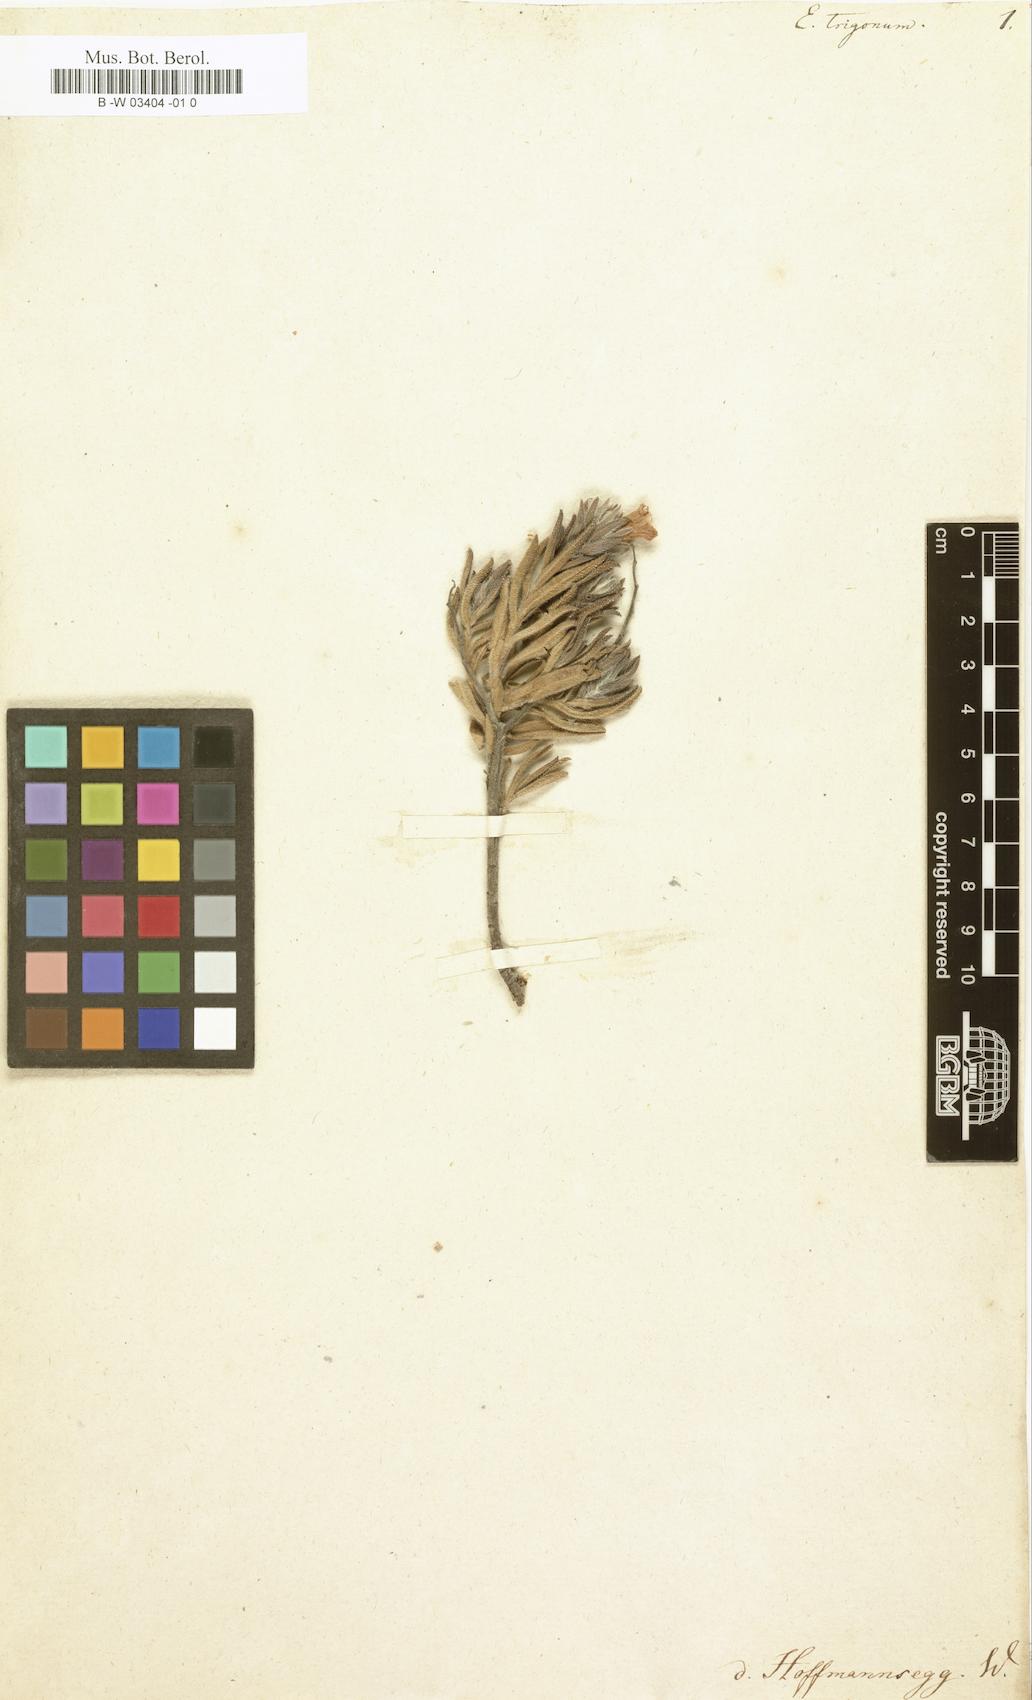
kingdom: Plantae
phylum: Tracheophyta
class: Magnoliopsida
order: Boraginales
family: Boraginaceae
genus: Lobostemon
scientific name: Lobostemon trigonus
